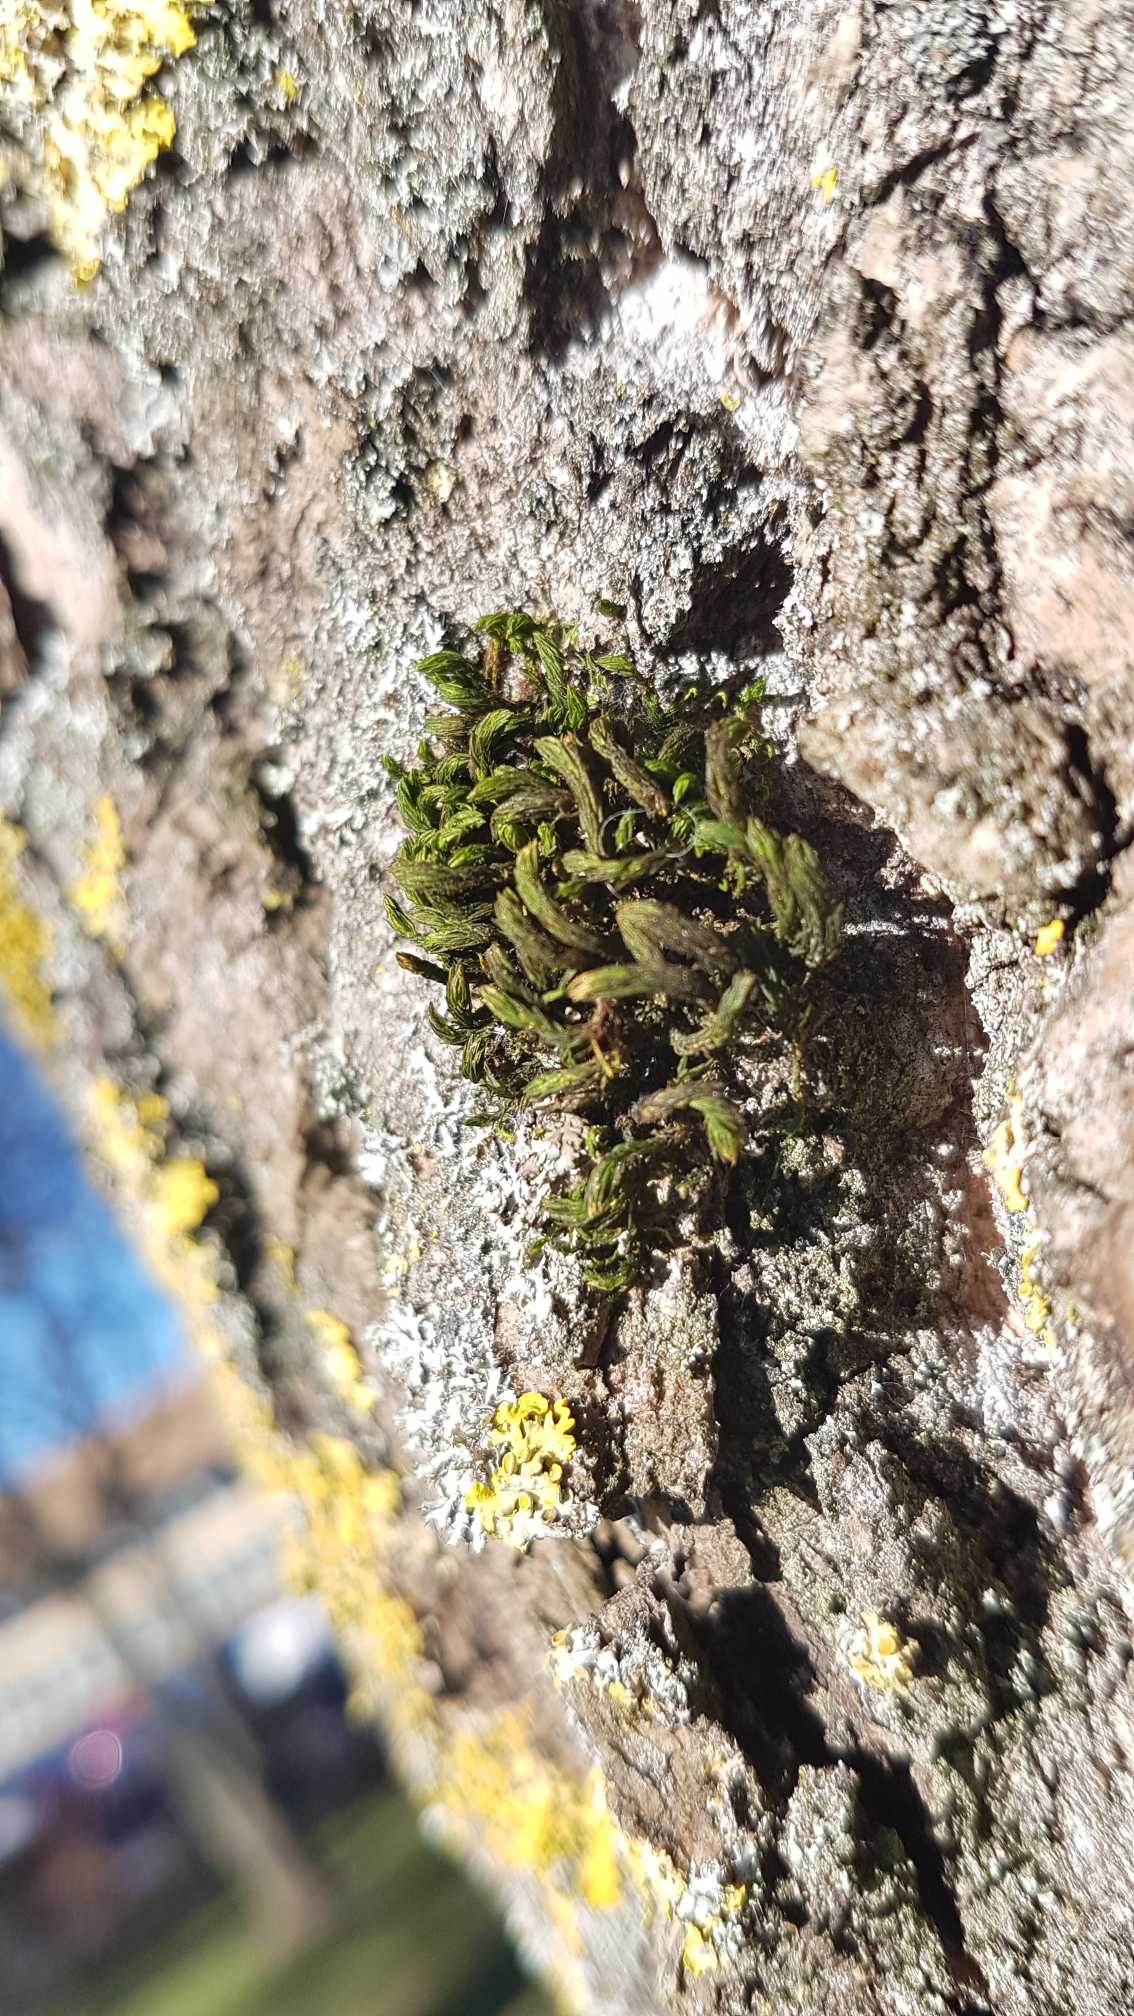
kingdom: Plantae
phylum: Bryophyta
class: Bryopsida
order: Orthotrichales
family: Orthotrichaceae
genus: Pulvigera
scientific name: Pulvigera lyellii
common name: Stor furehætte
